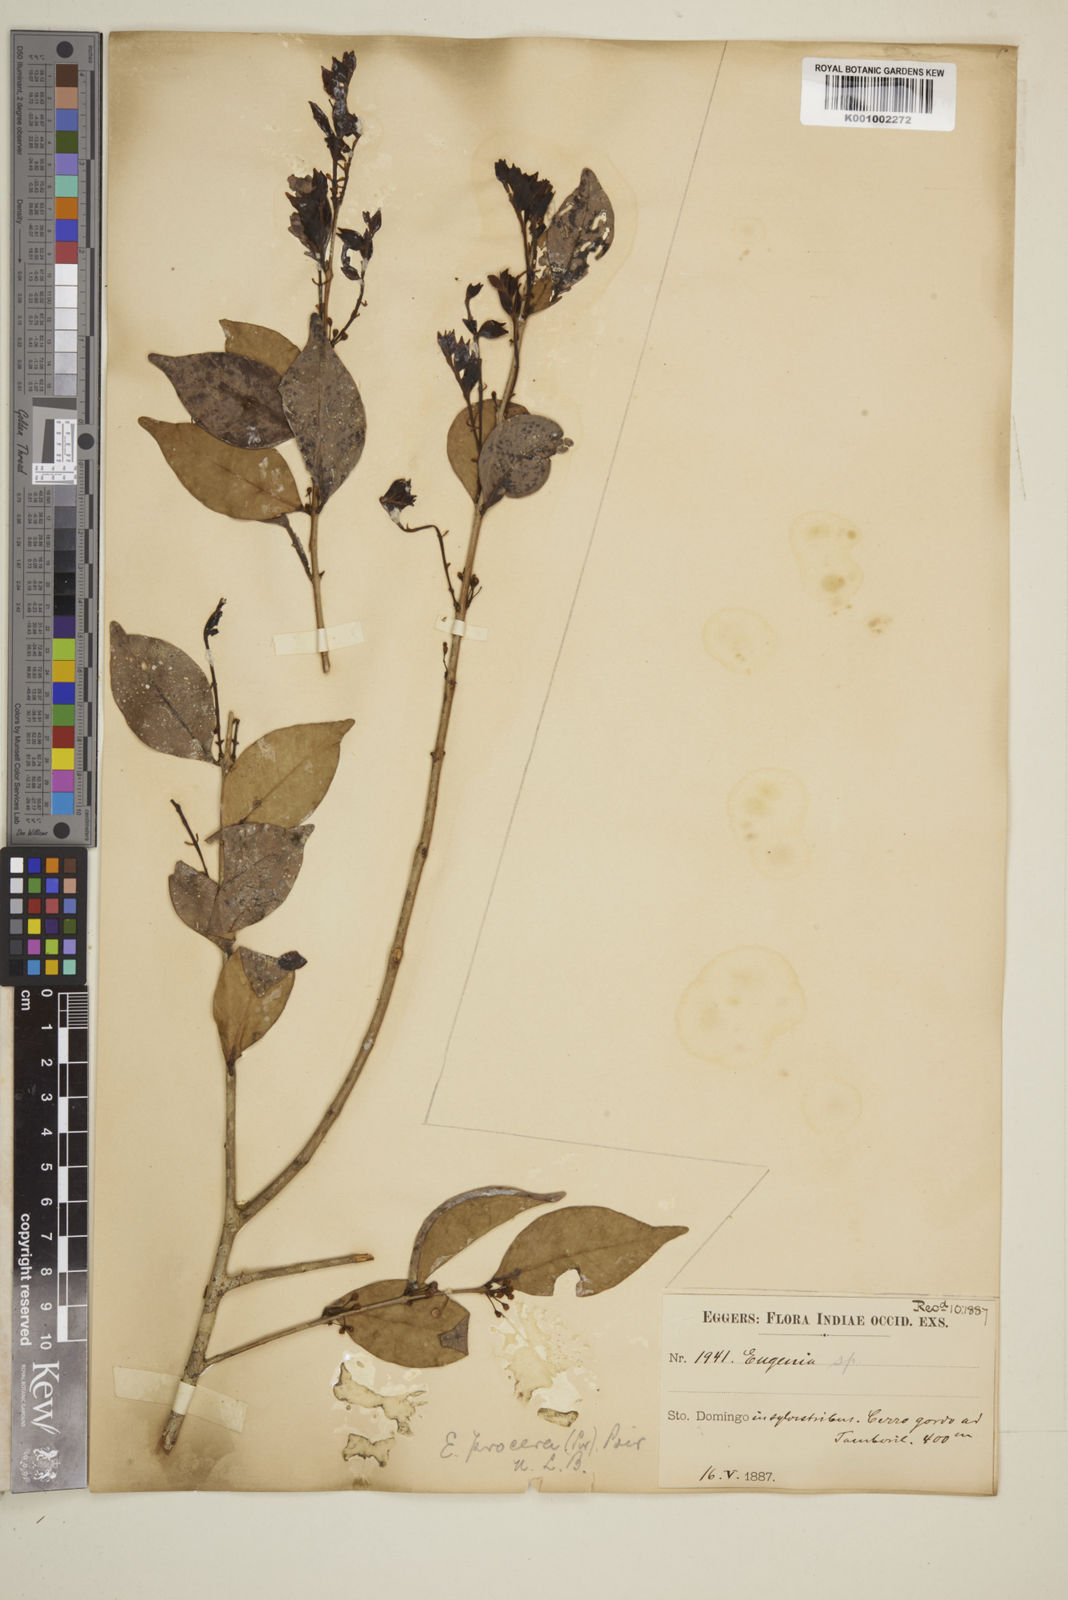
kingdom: Plantae
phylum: Tracheophyta
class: Magnoliopsida
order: Myrtales
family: Myrtaceae
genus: Eugenia
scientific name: Eugenia procera
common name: Bastard blackberry
